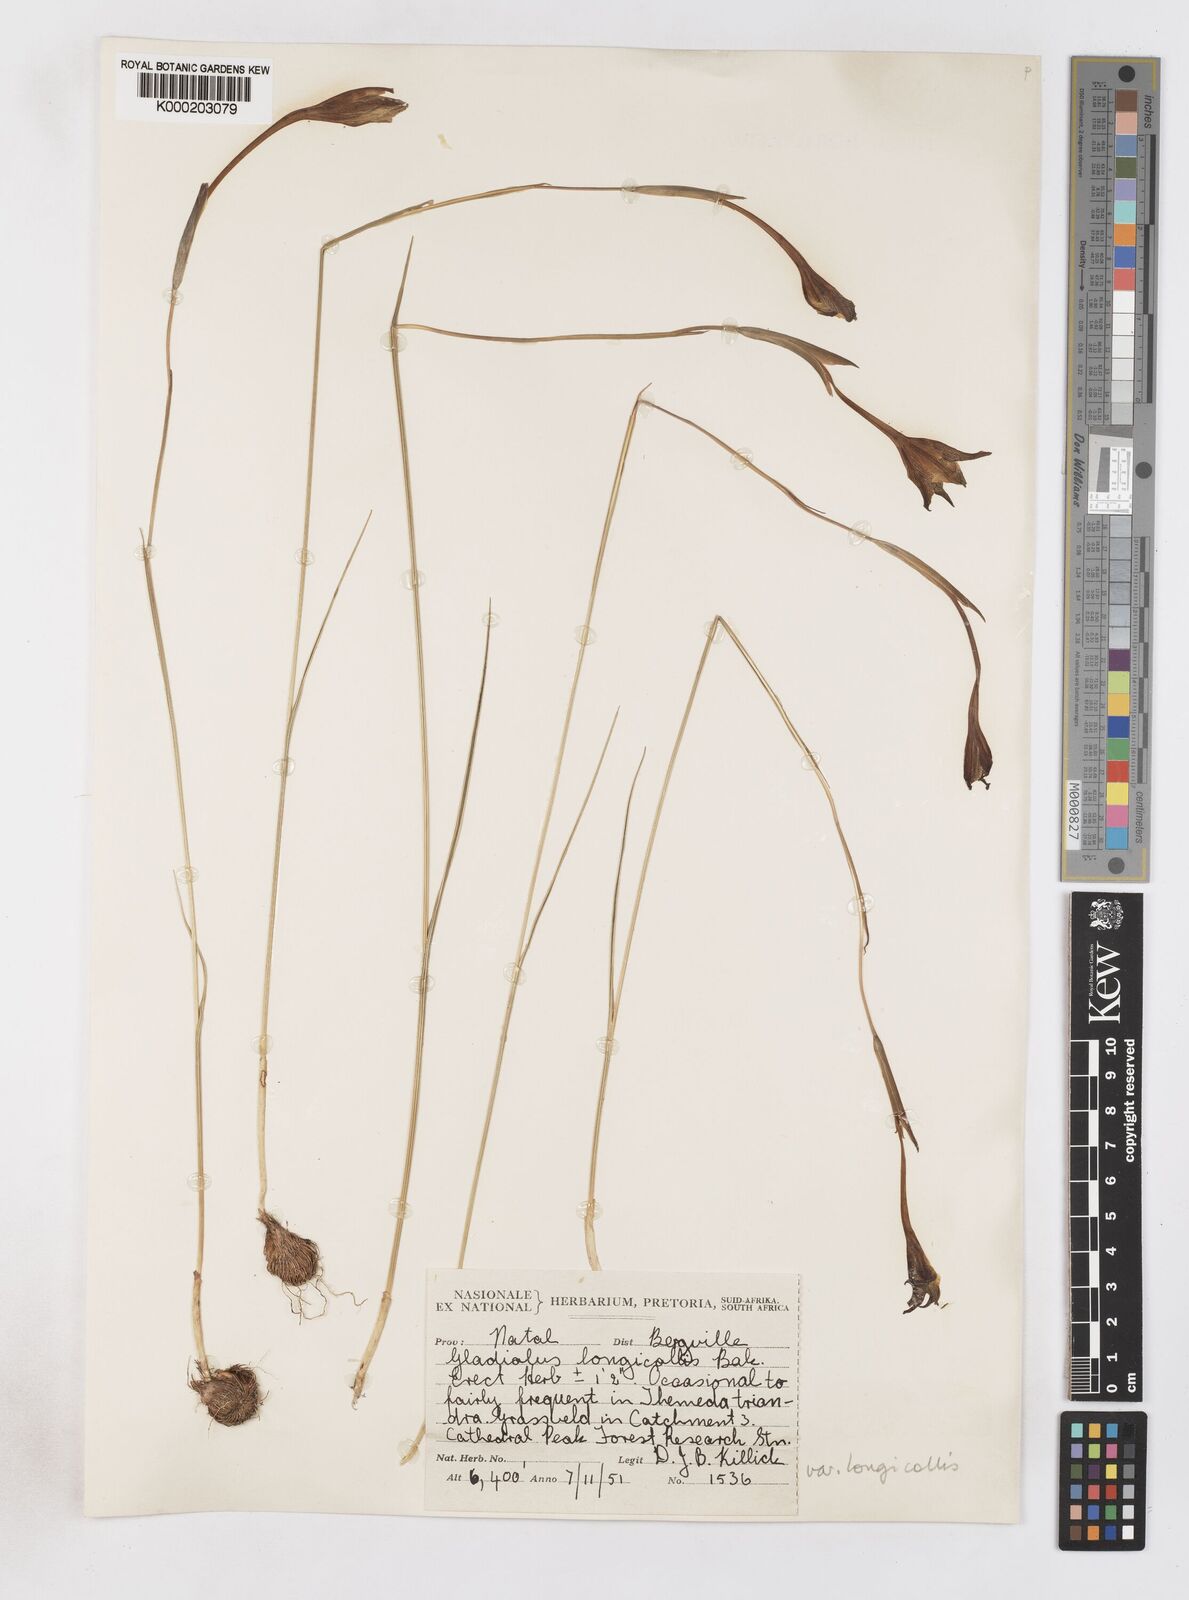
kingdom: Plantae
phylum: Tracheophyta
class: Liliopsida
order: Asparagales
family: Iridaceae
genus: Gladiolus
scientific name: Gladiolus longicollis
